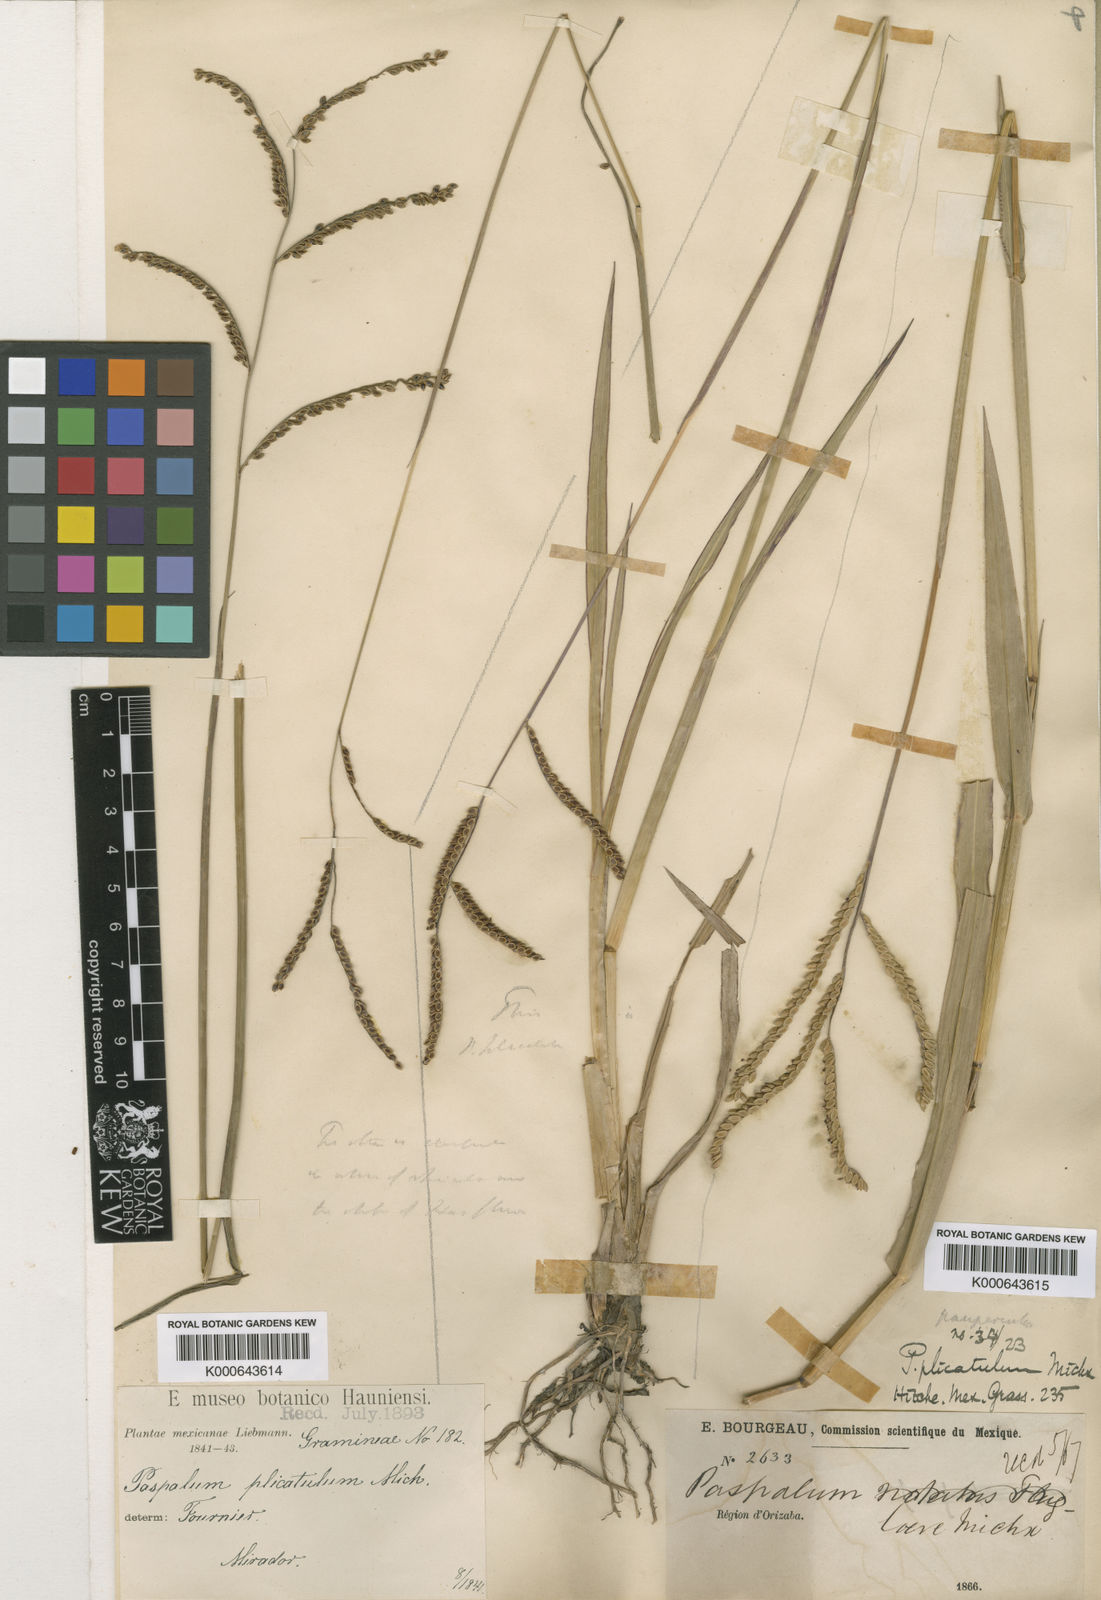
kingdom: Plantae
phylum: Tracheophyta
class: Liliopsida
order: Poales
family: Poaceae
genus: Paspalum
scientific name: Paspalum plicatulum
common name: Top paspalum
